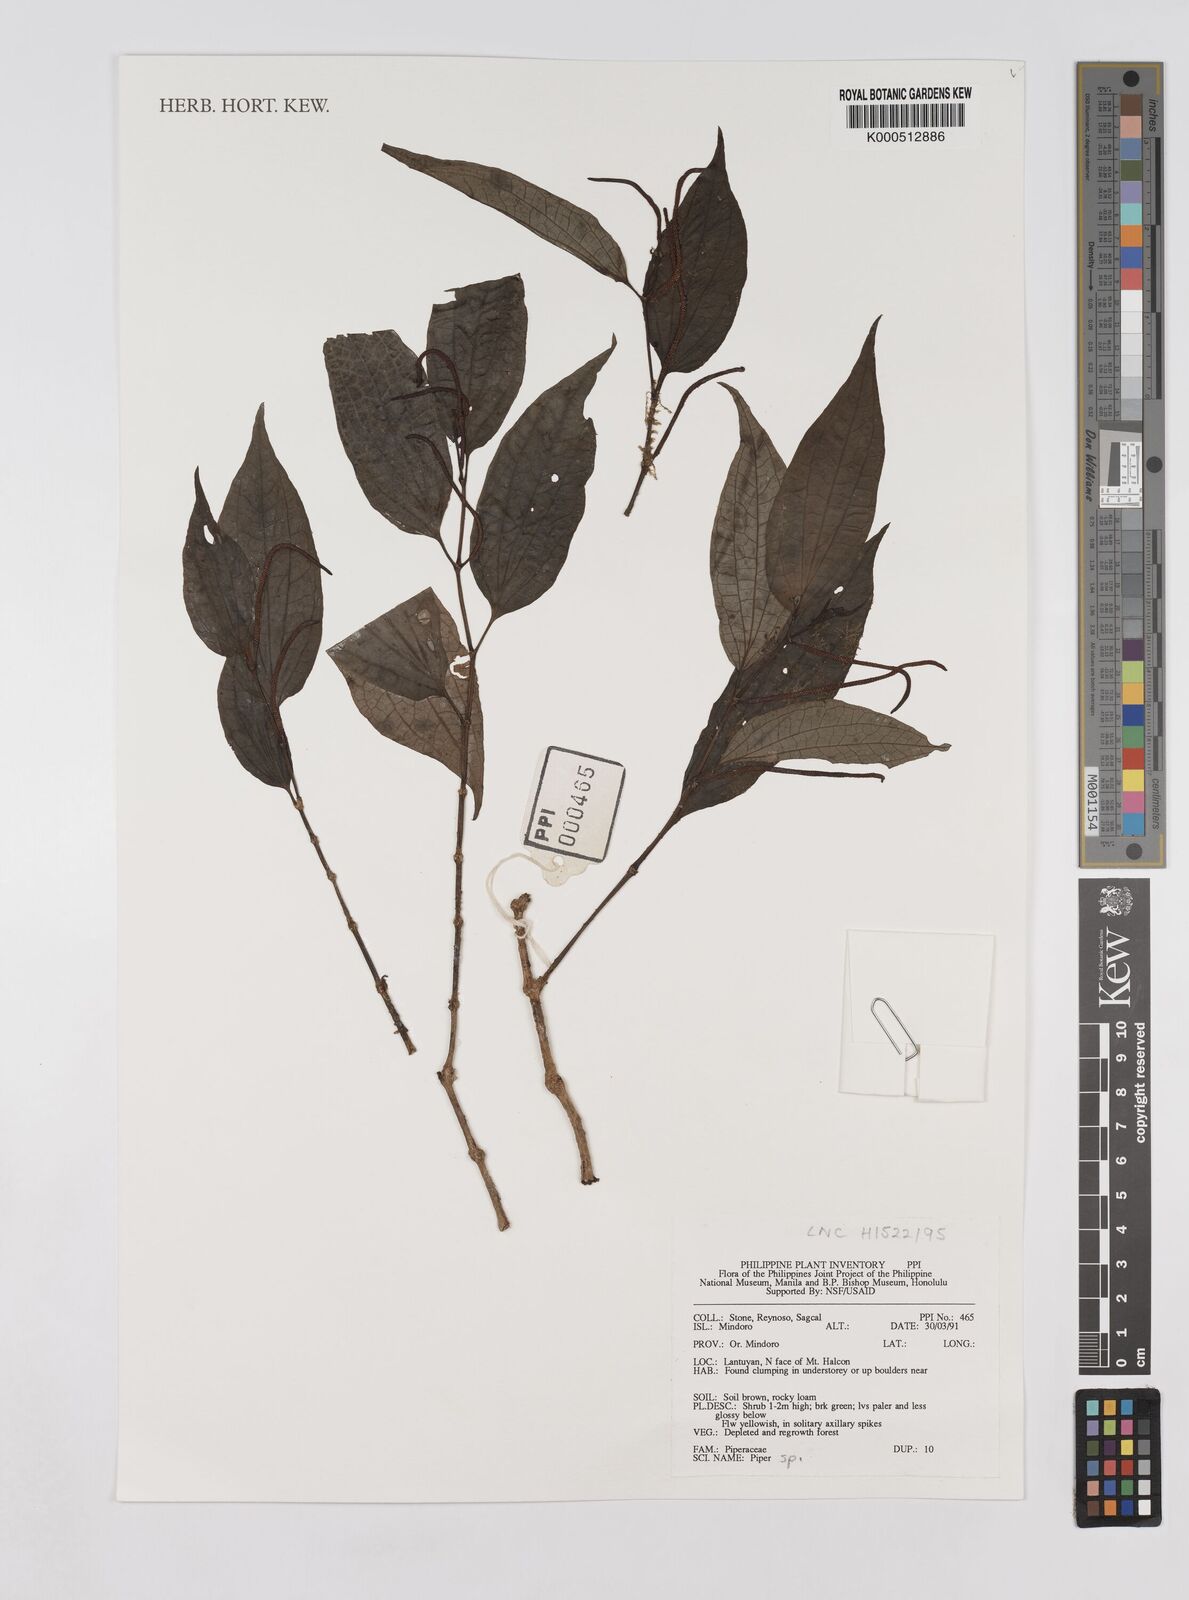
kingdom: Plantae
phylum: Tracheophyta
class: Magnoliopsida
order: Piperales
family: Piperaceae
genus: Piper
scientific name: Piper
